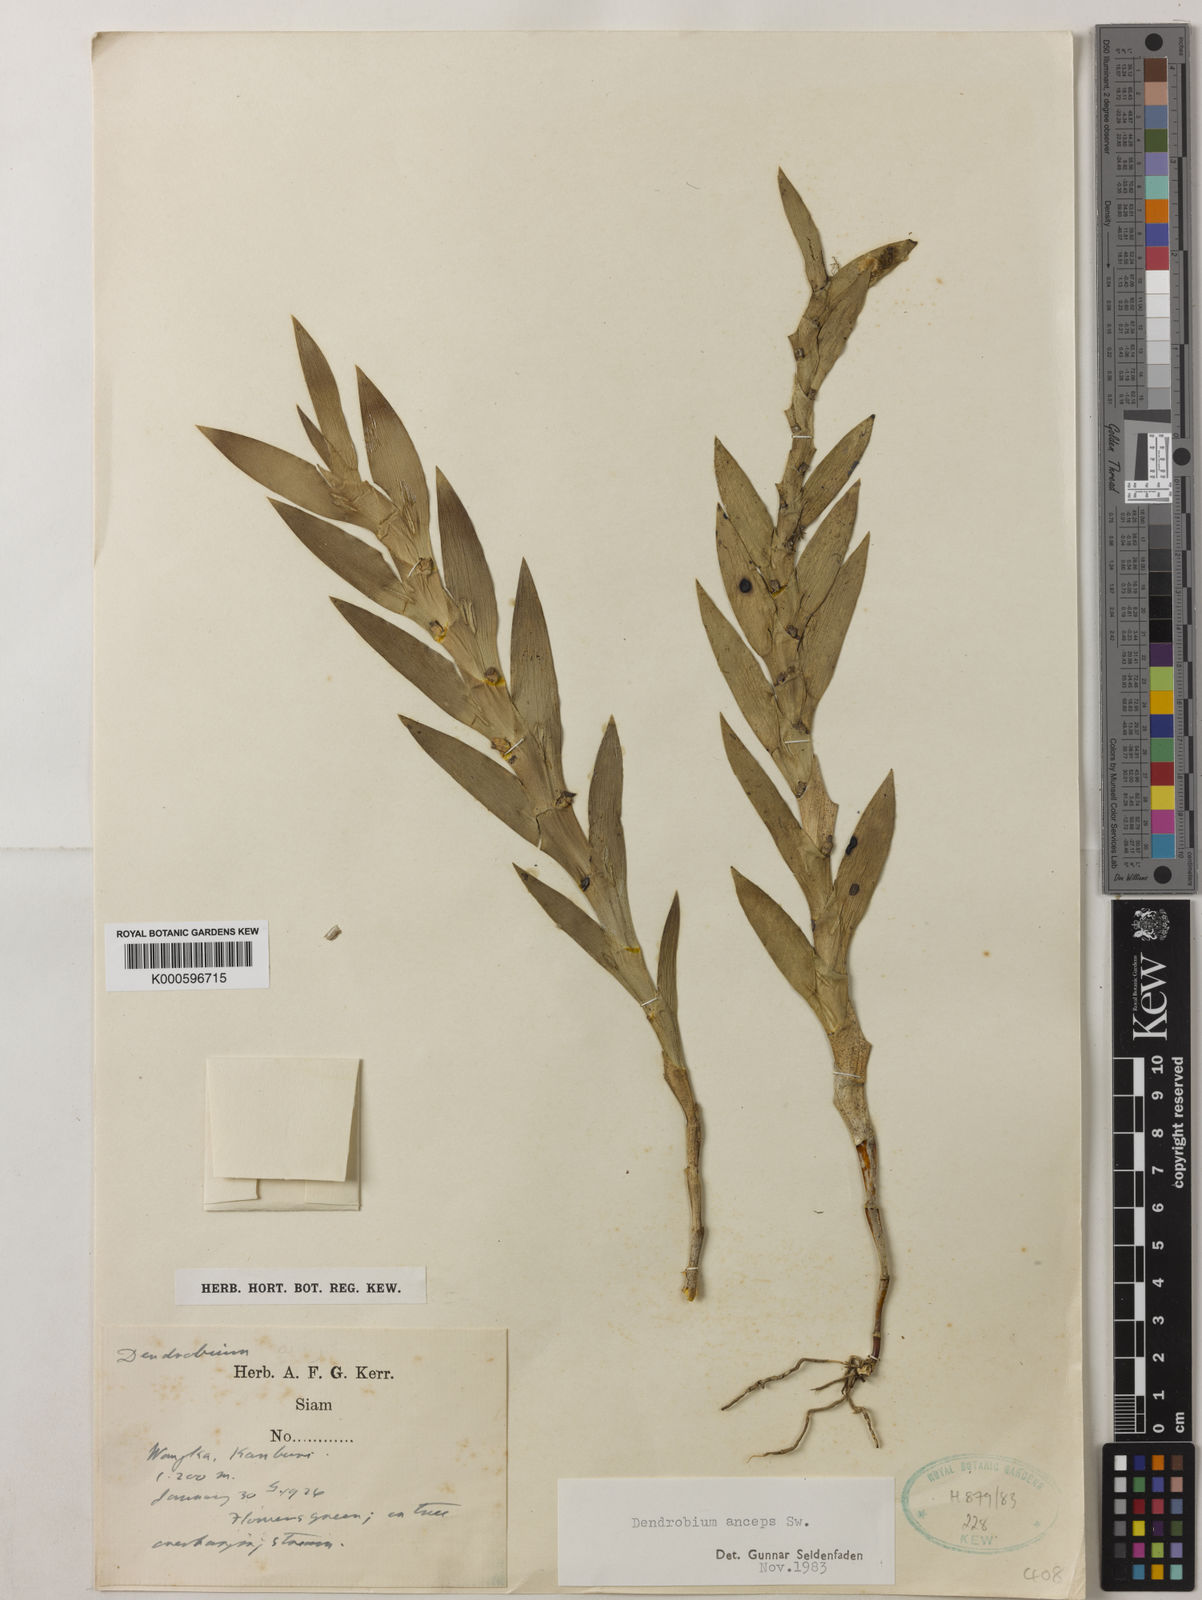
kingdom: Plantae
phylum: Tracheophyta
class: Liliopsida
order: Asparagales
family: Orchidaceae
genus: Dendrobium
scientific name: Dendrobium anceps
